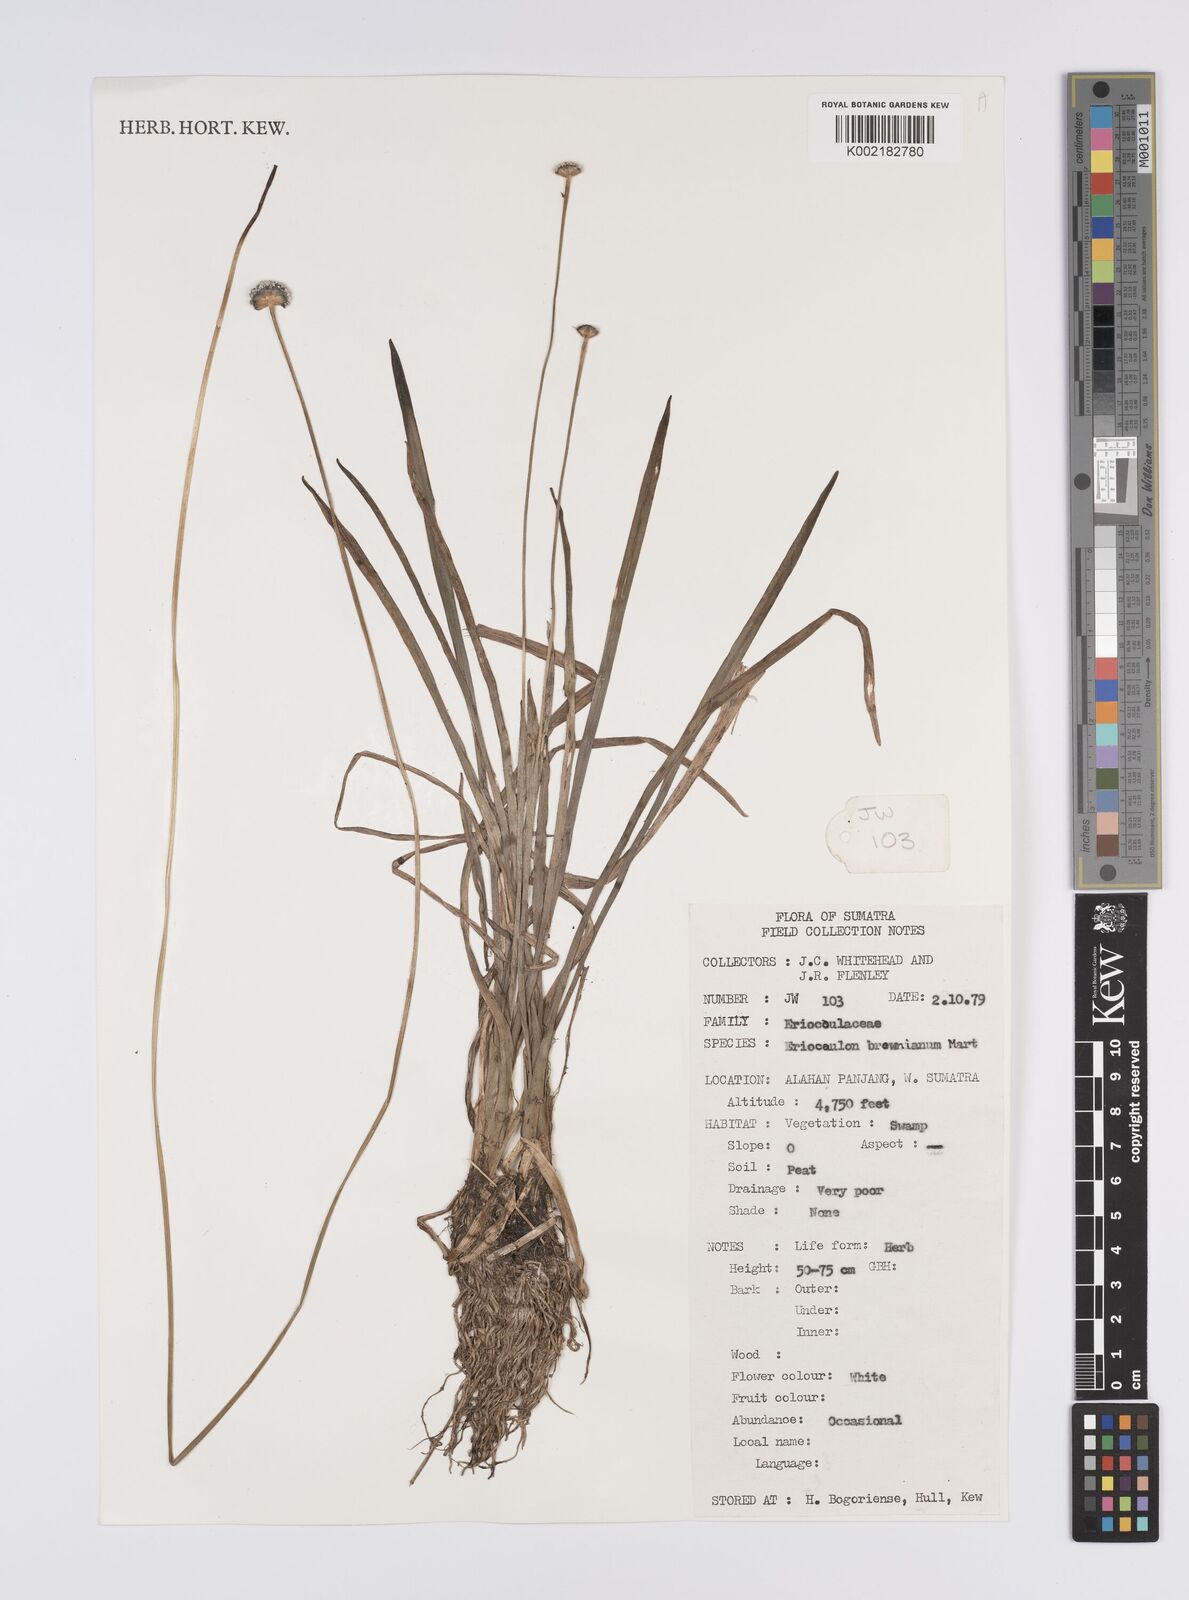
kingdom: Plantae
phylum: Tracheophyta
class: Liliopsida
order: Poales
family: Eriocaulaceae
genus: Eriocaulon
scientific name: Eriocaulon brownianum
